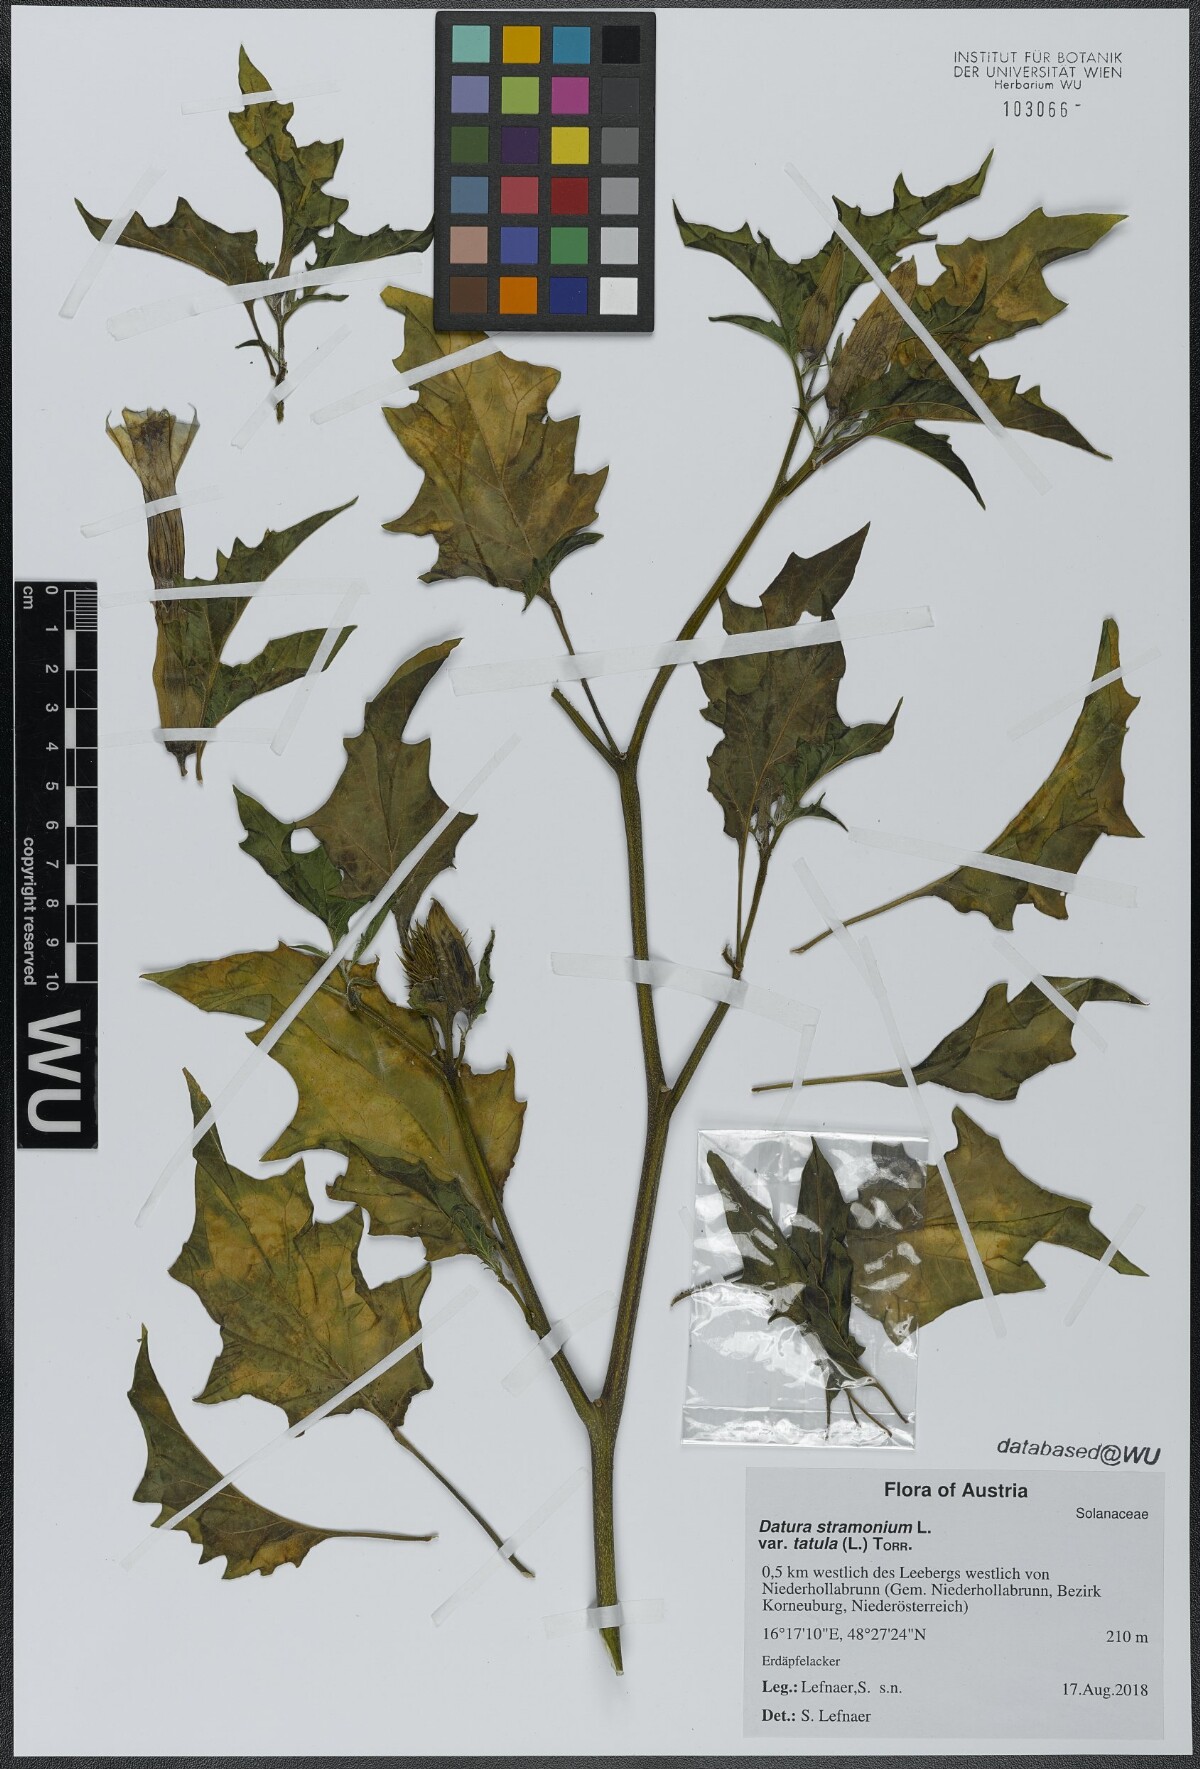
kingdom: Plantae
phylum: Tracheophyta
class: Magnoliopsida
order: Solanales
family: Solanaceae
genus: Datura
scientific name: Datura stramonium
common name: Thorn-apple
